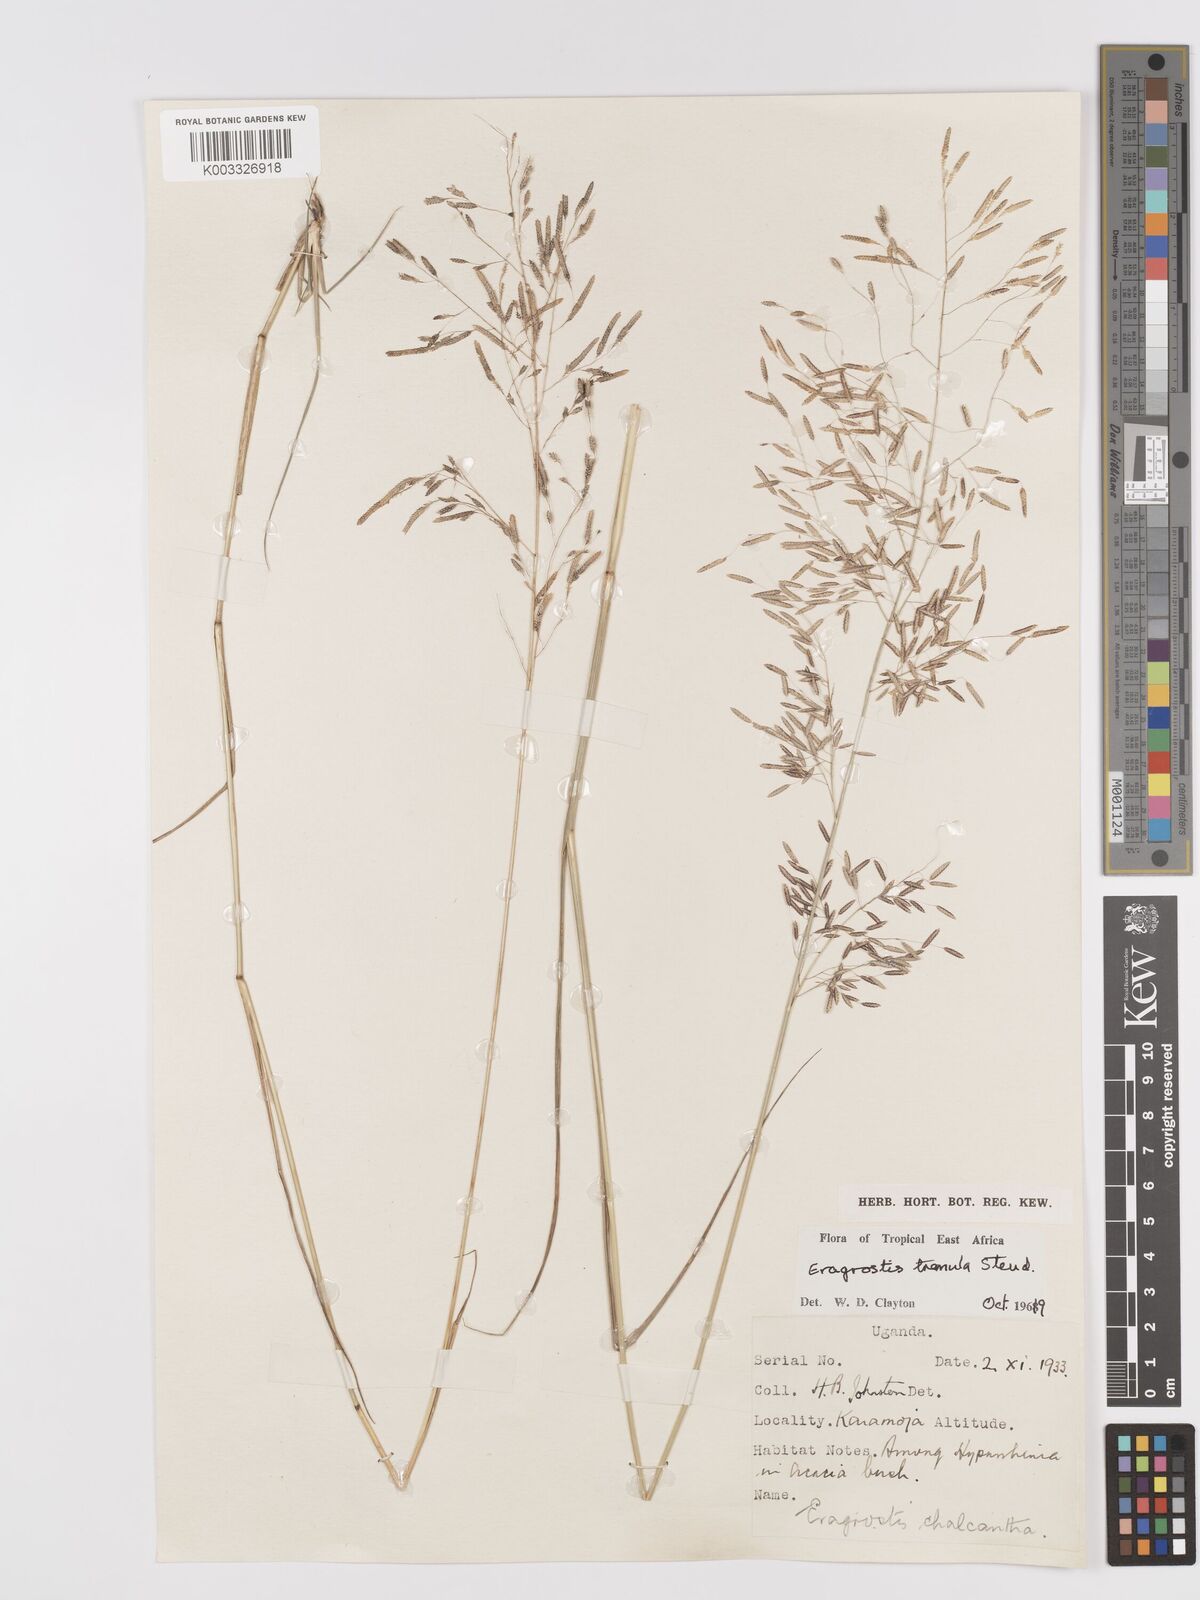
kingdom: Plantae
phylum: Tracheophyta
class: Liliopsida
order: Poales
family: Poaceae
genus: Eragrostis
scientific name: Eragrostis tremula
